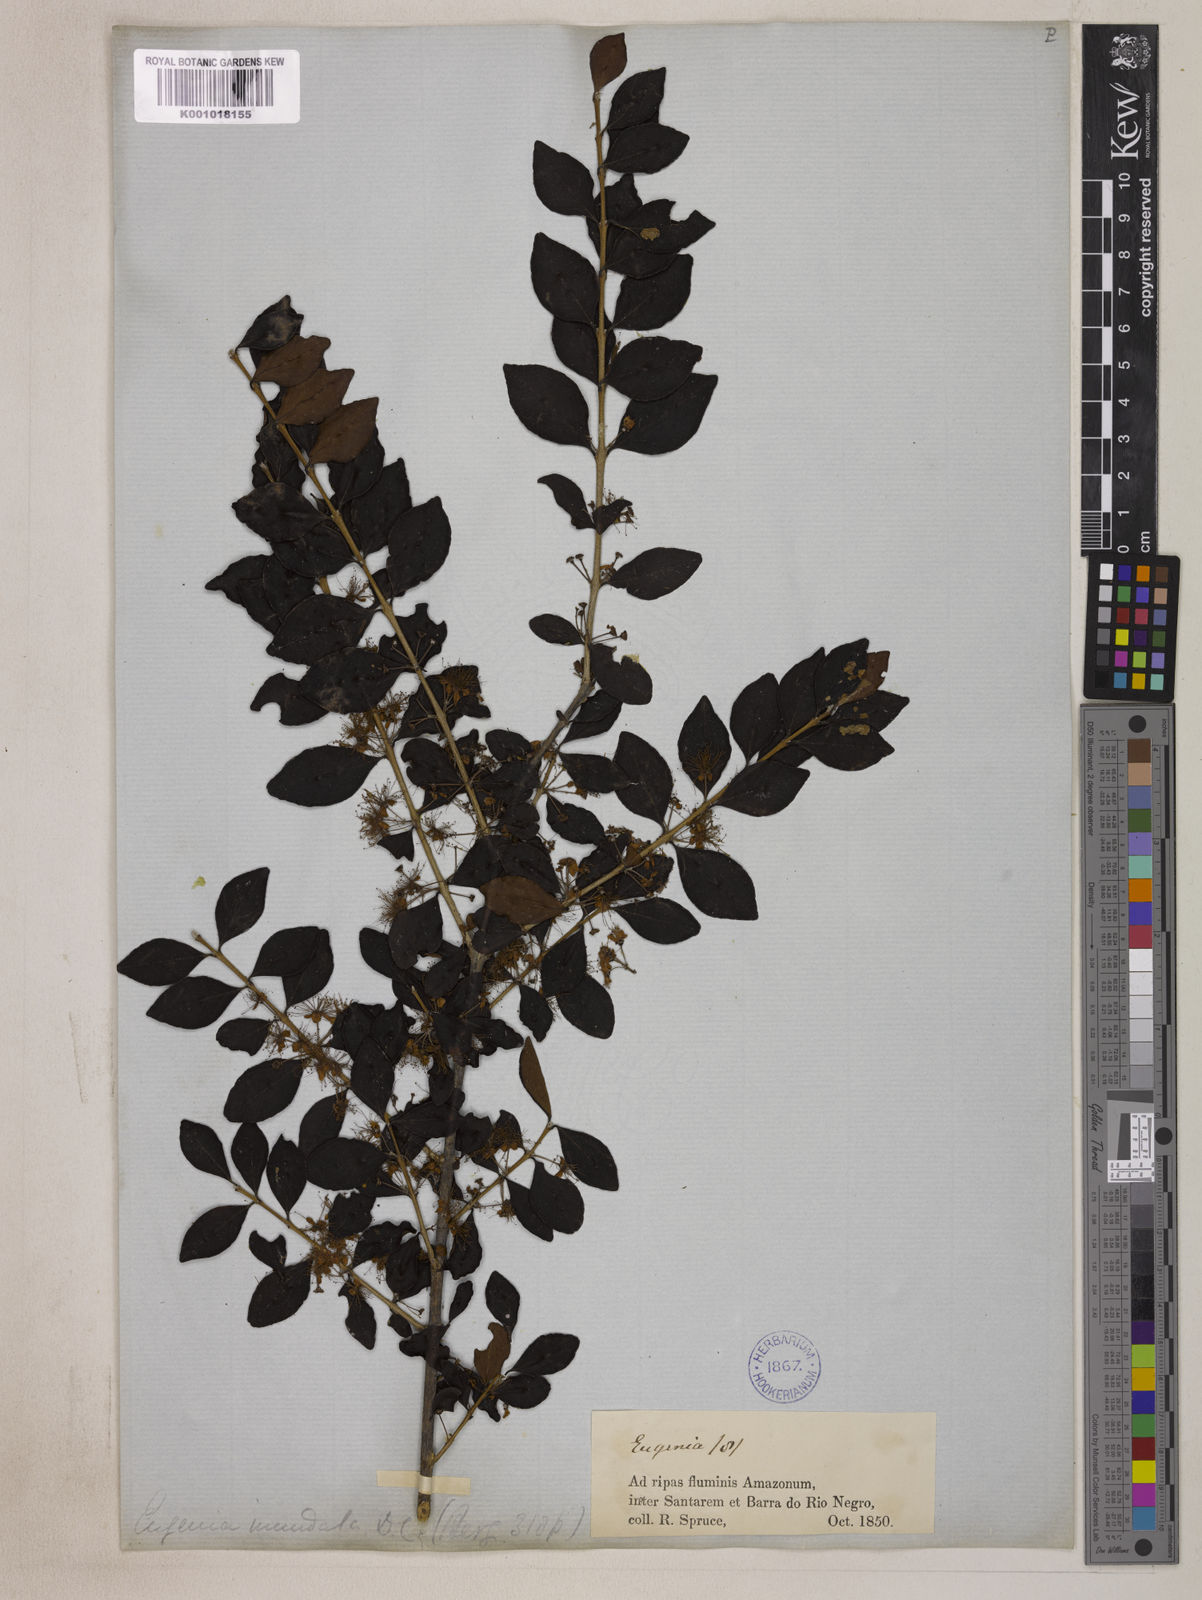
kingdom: Plantae
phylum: Tracheophyta
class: Magnoliopsida
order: Myrtales
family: Myrtaceae
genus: Eugenia
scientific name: Eugenia inundata
